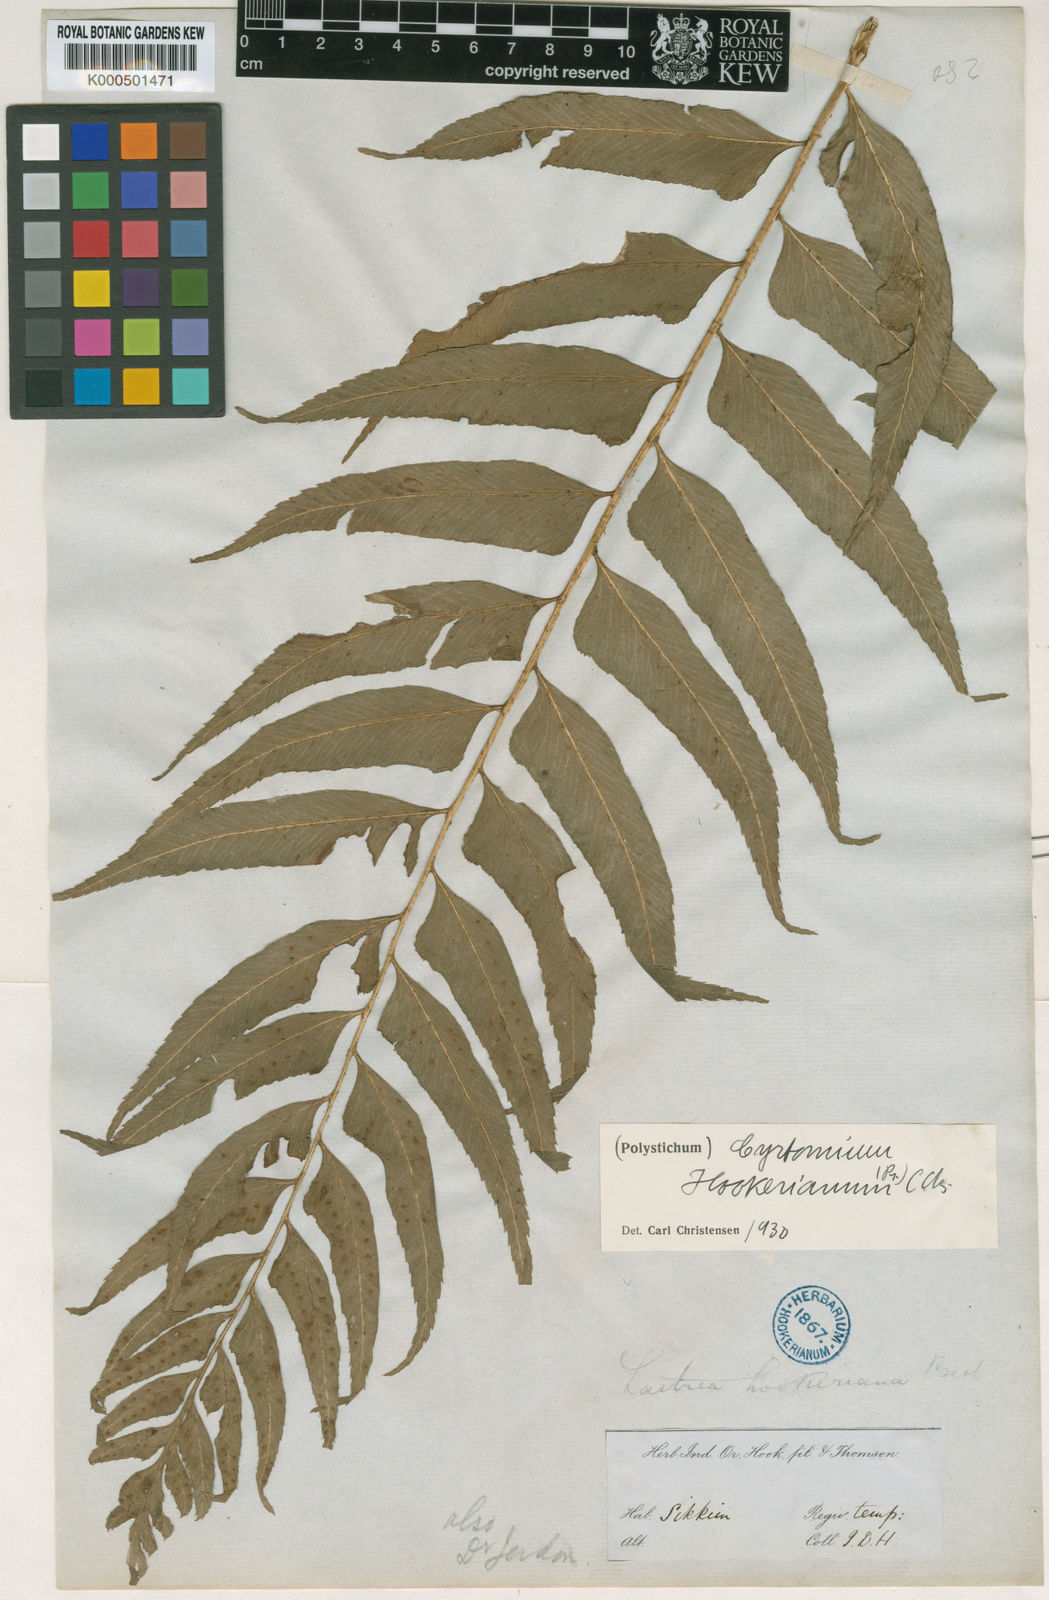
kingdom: Plantae
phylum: Tracheophyta
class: Polypodiopsida
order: Polypodiales
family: Dryopteridaceae
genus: Polystichum
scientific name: Polystichum hookerianum
